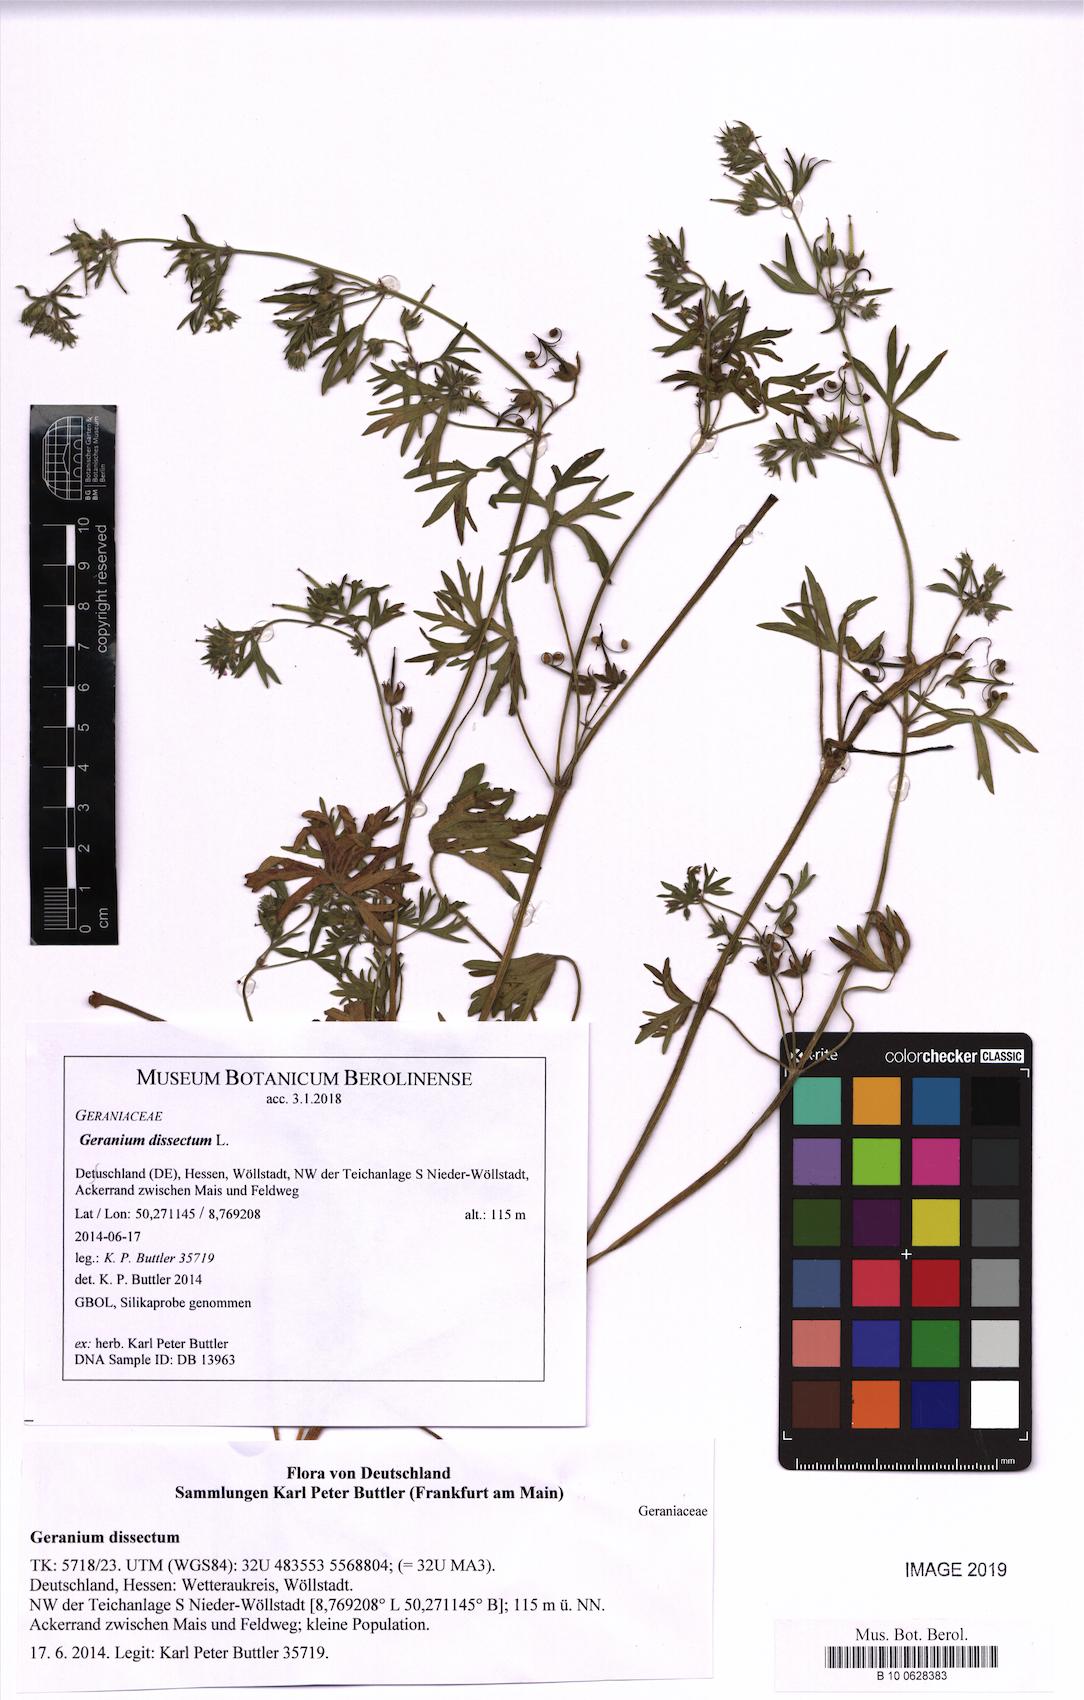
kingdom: Plantae
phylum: Tracheophyta
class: Magnoliopsida
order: Geraniales
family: Geraniaceae
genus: Geranium
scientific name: Geranium dissectum
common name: Cut-leaved crane's-bill
